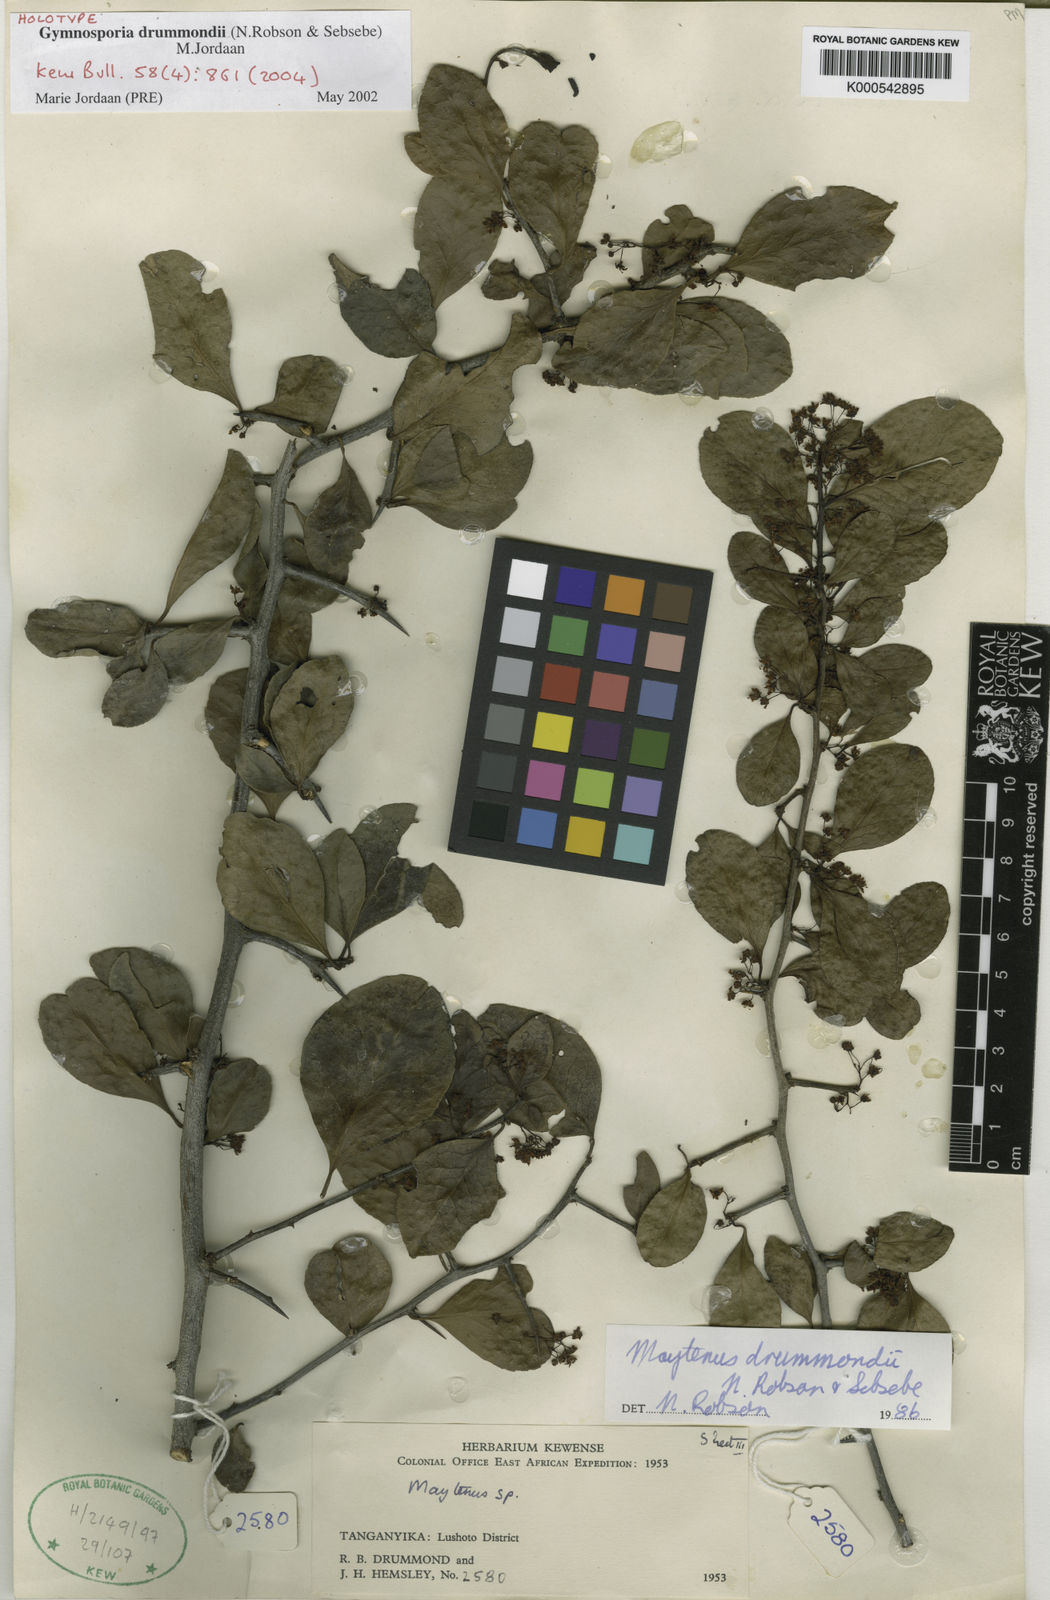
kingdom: Plantae
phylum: Tracheophyta
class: Magnoliopsida
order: Celastrales
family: Celastraceae
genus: Gymnosporia
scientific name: Gymnosporia drummondii
